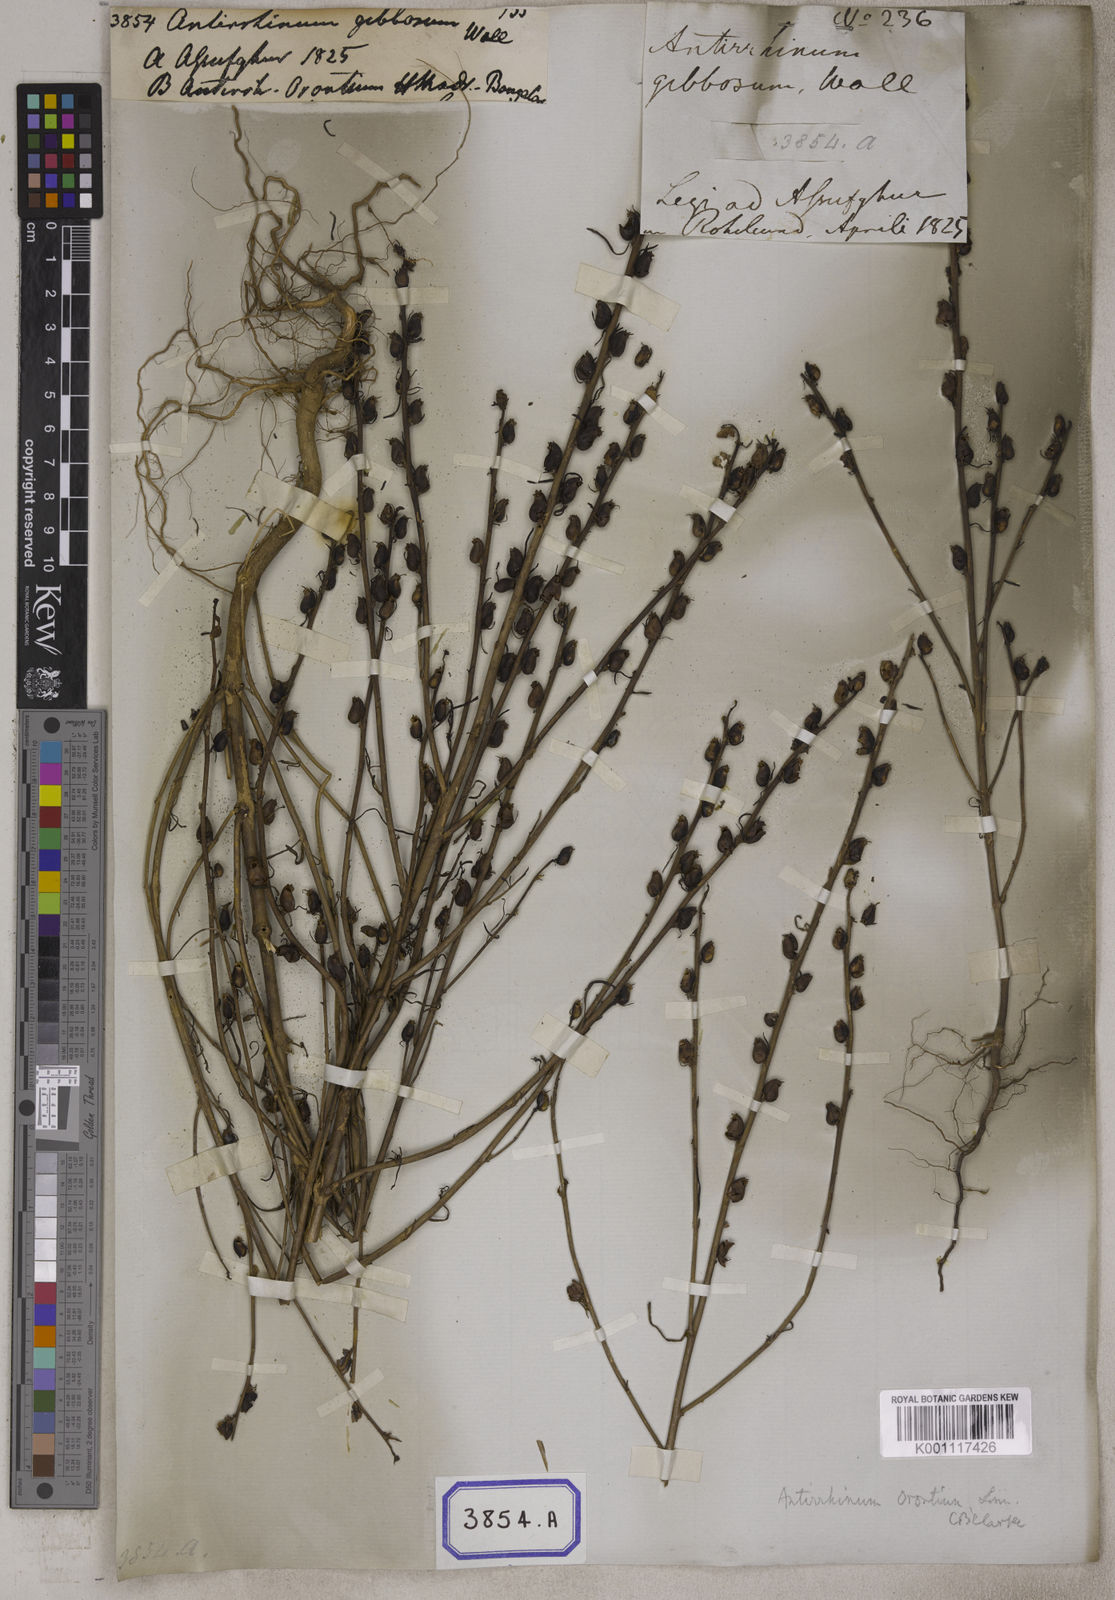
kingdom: Plantae
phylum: Tracheophyta
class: Magnoliopsida
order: Lamiales
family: Plantaginaceae
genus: Misopates
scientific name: Misopates orontium
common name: Weasel's-snout
